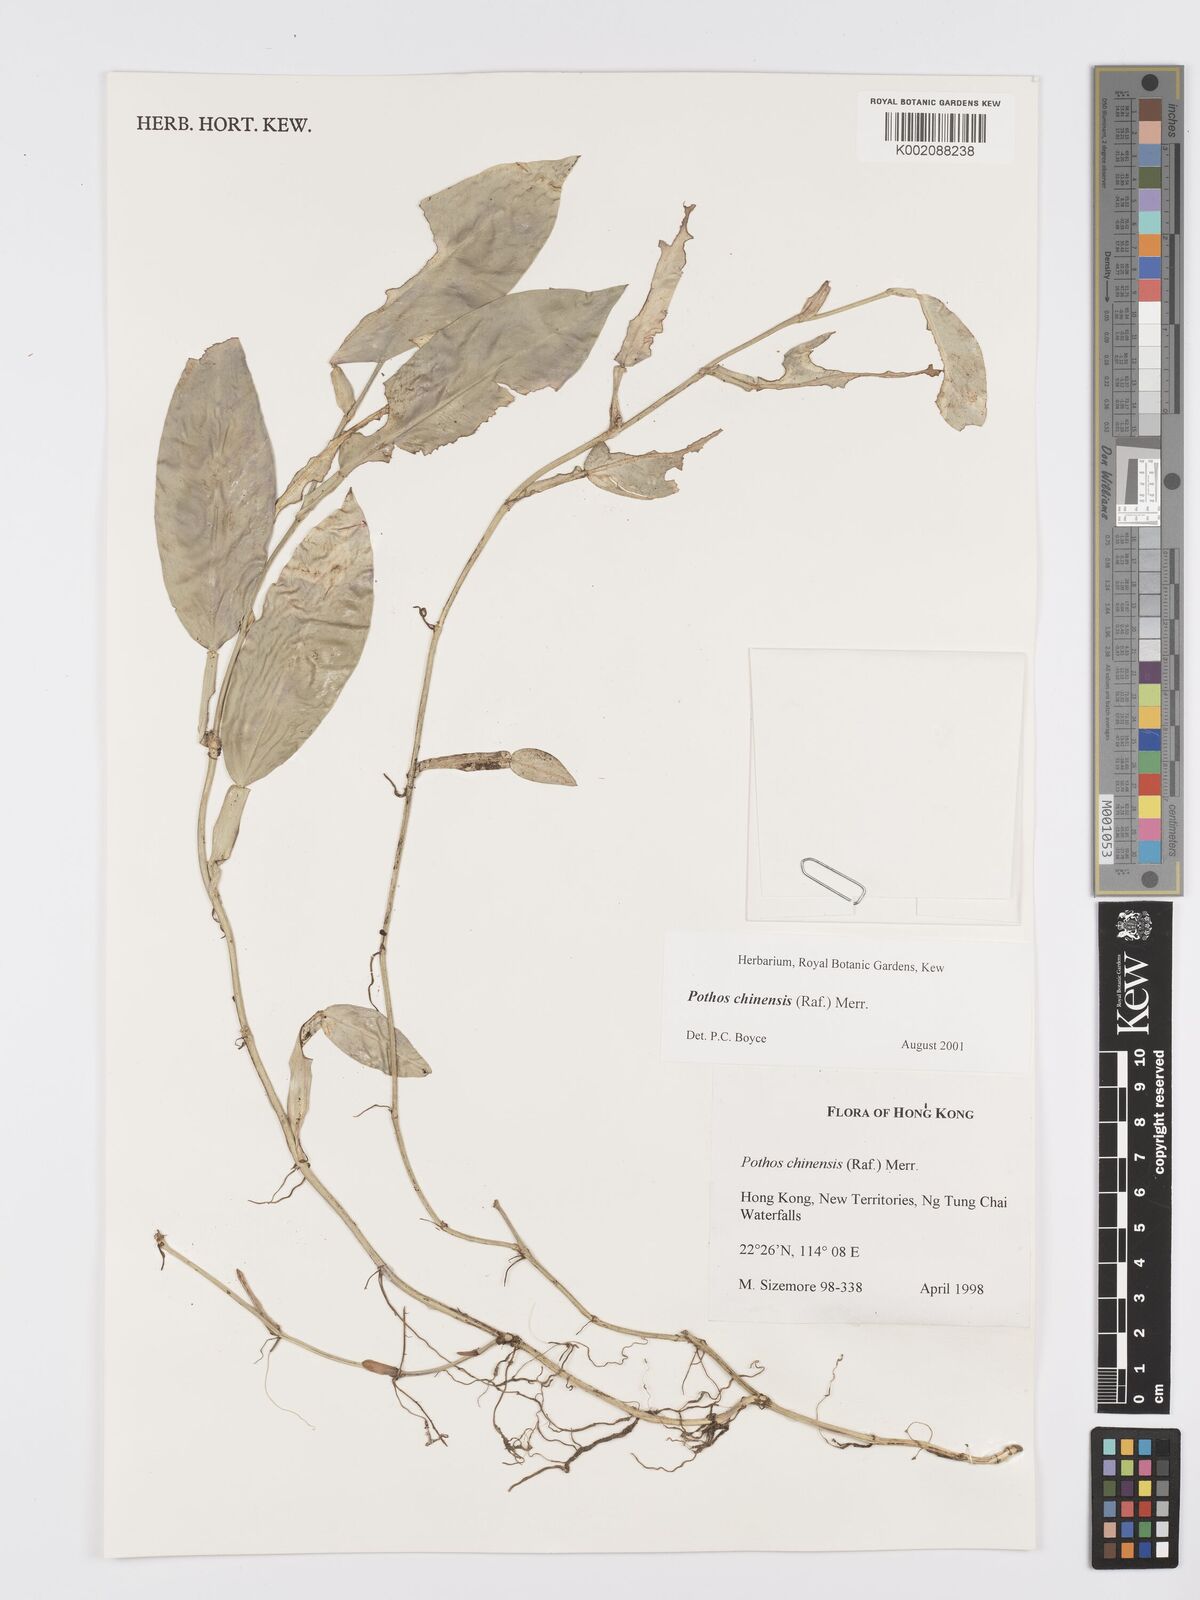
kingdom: Plantae
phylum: Tracheophyta
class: Liliopsida
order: Alismatales
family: Araceae
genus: Pothos
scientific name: Pothos chinensis
